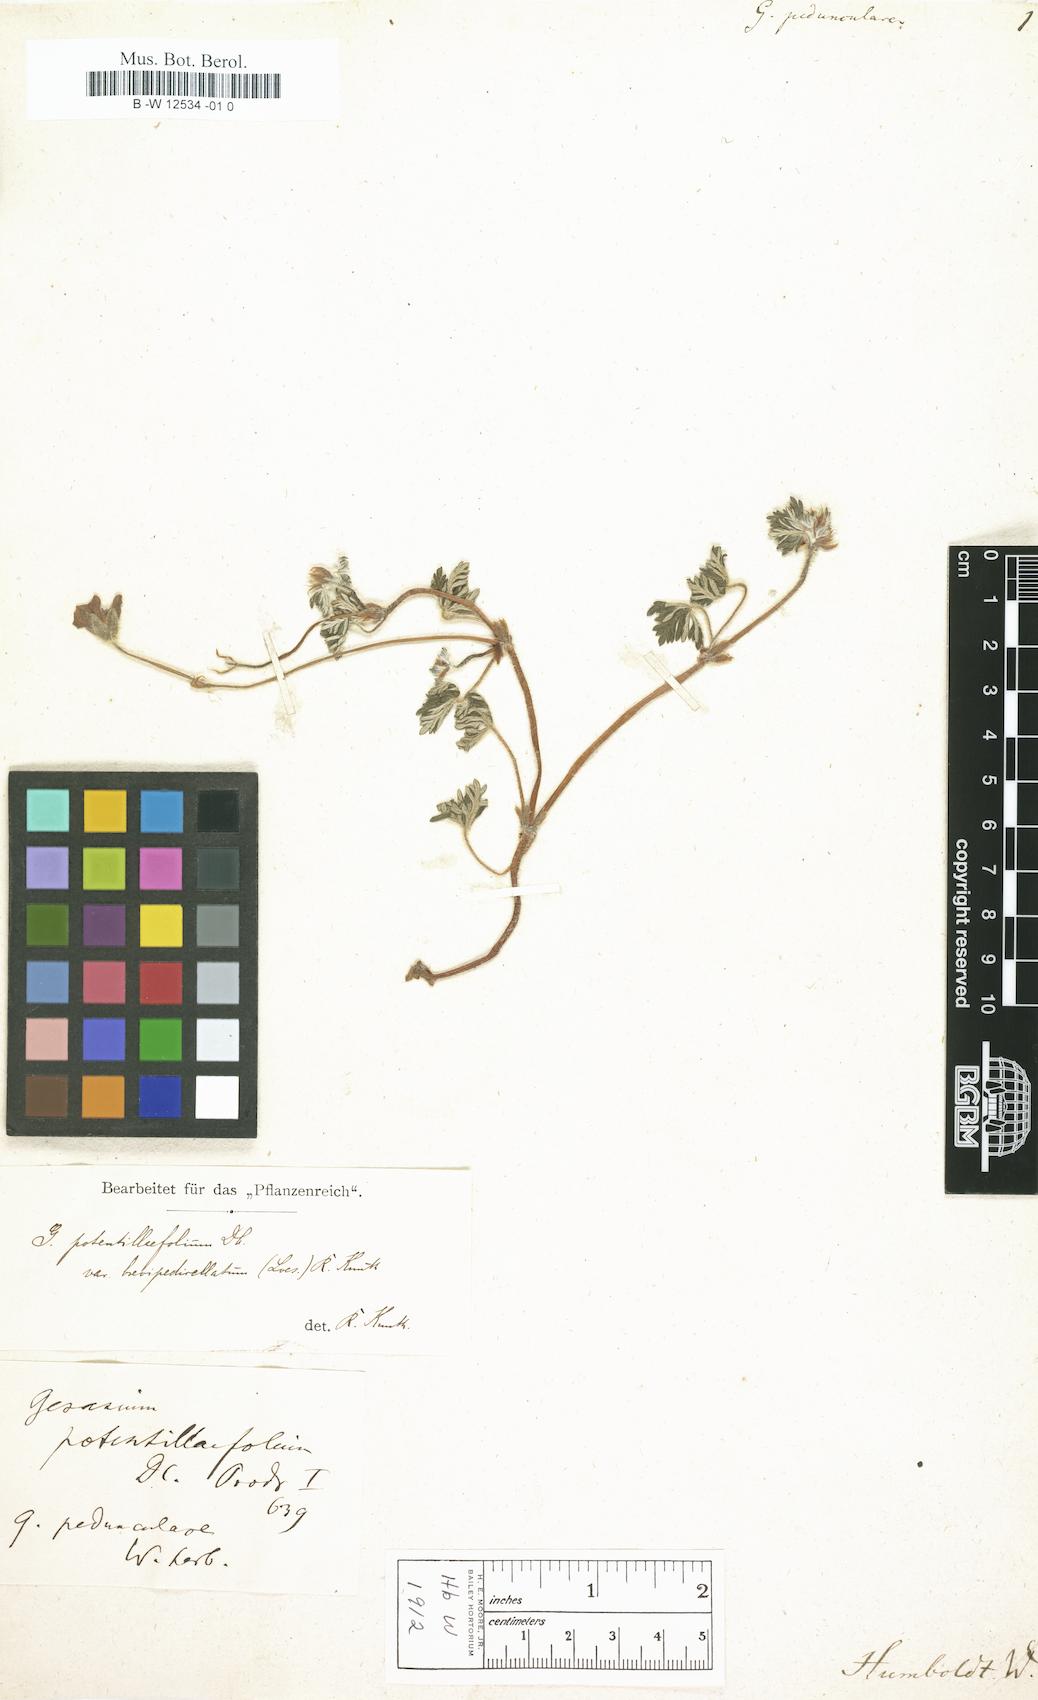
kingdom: Plantae
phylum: Tracheophyta
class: Magnoliopsida
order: Geraniales
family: Geraniaceae
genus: Geranium
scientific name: Geranium potentillifolium
